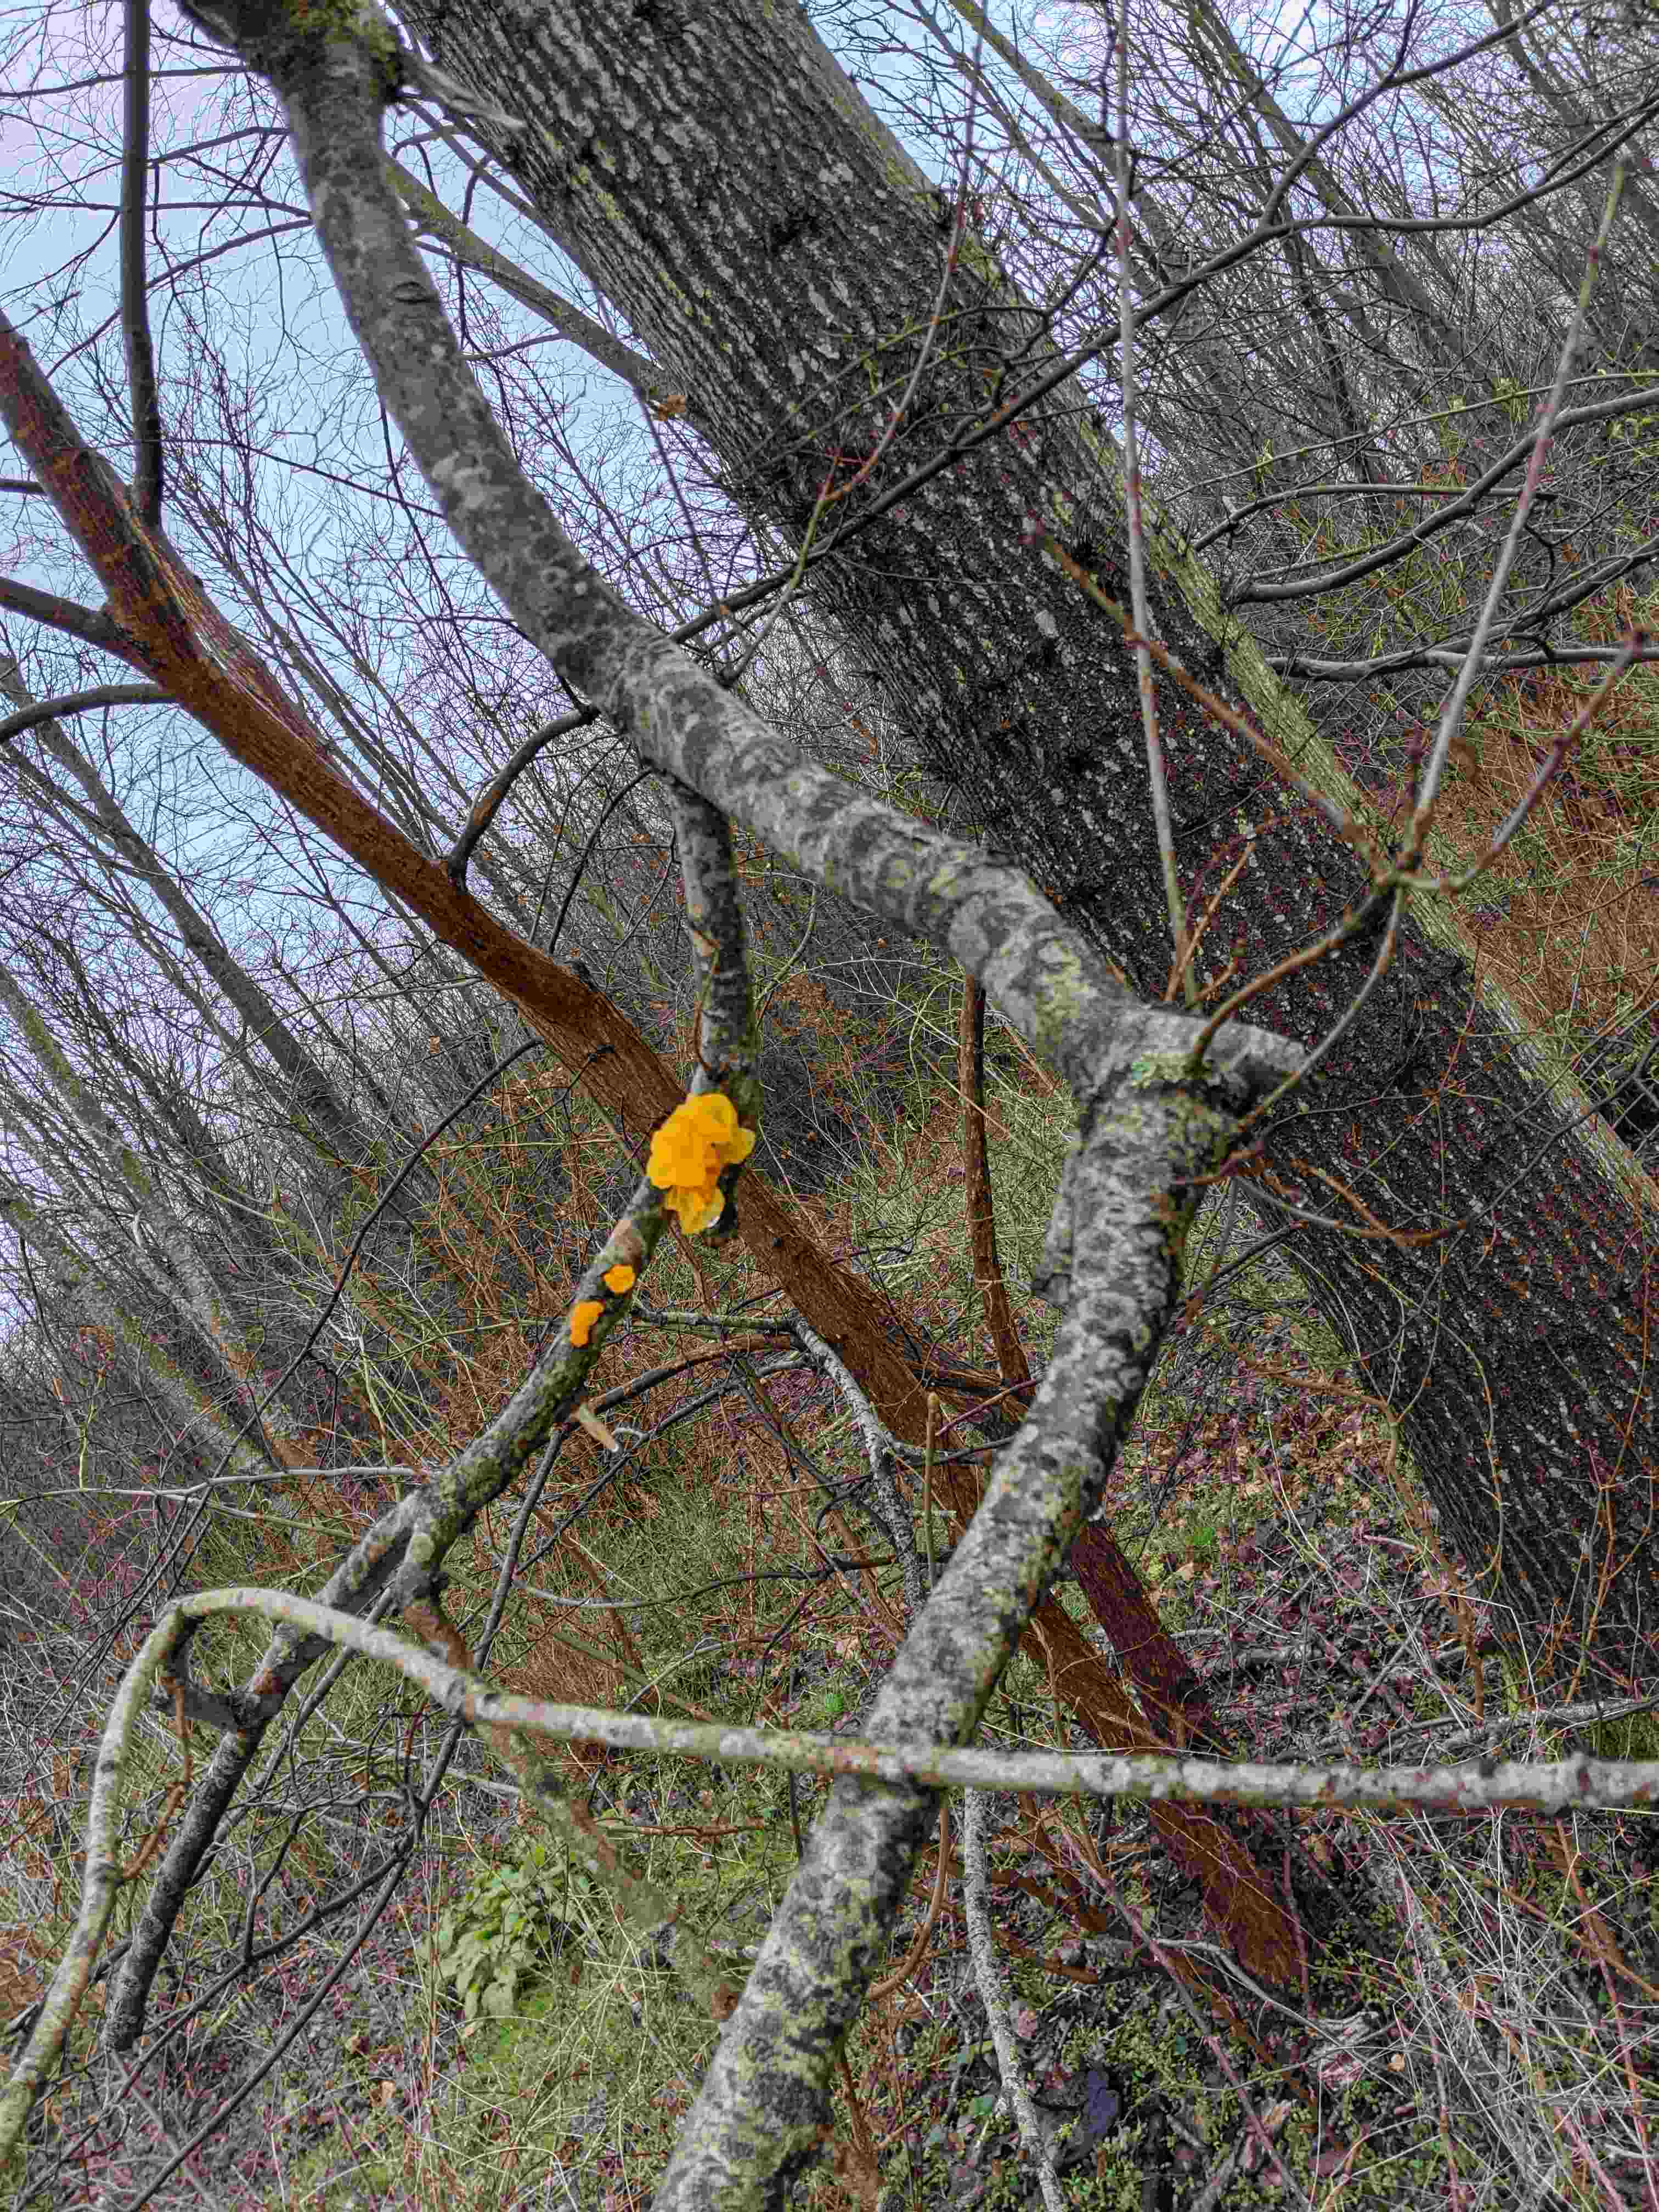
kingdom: Fungi
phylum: Basidiomycota
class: Tremellomycetes
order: Tremellales
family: Tremellaceae
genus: Tremella
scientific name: Tremella mesenterica
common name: gul bævresvamp
